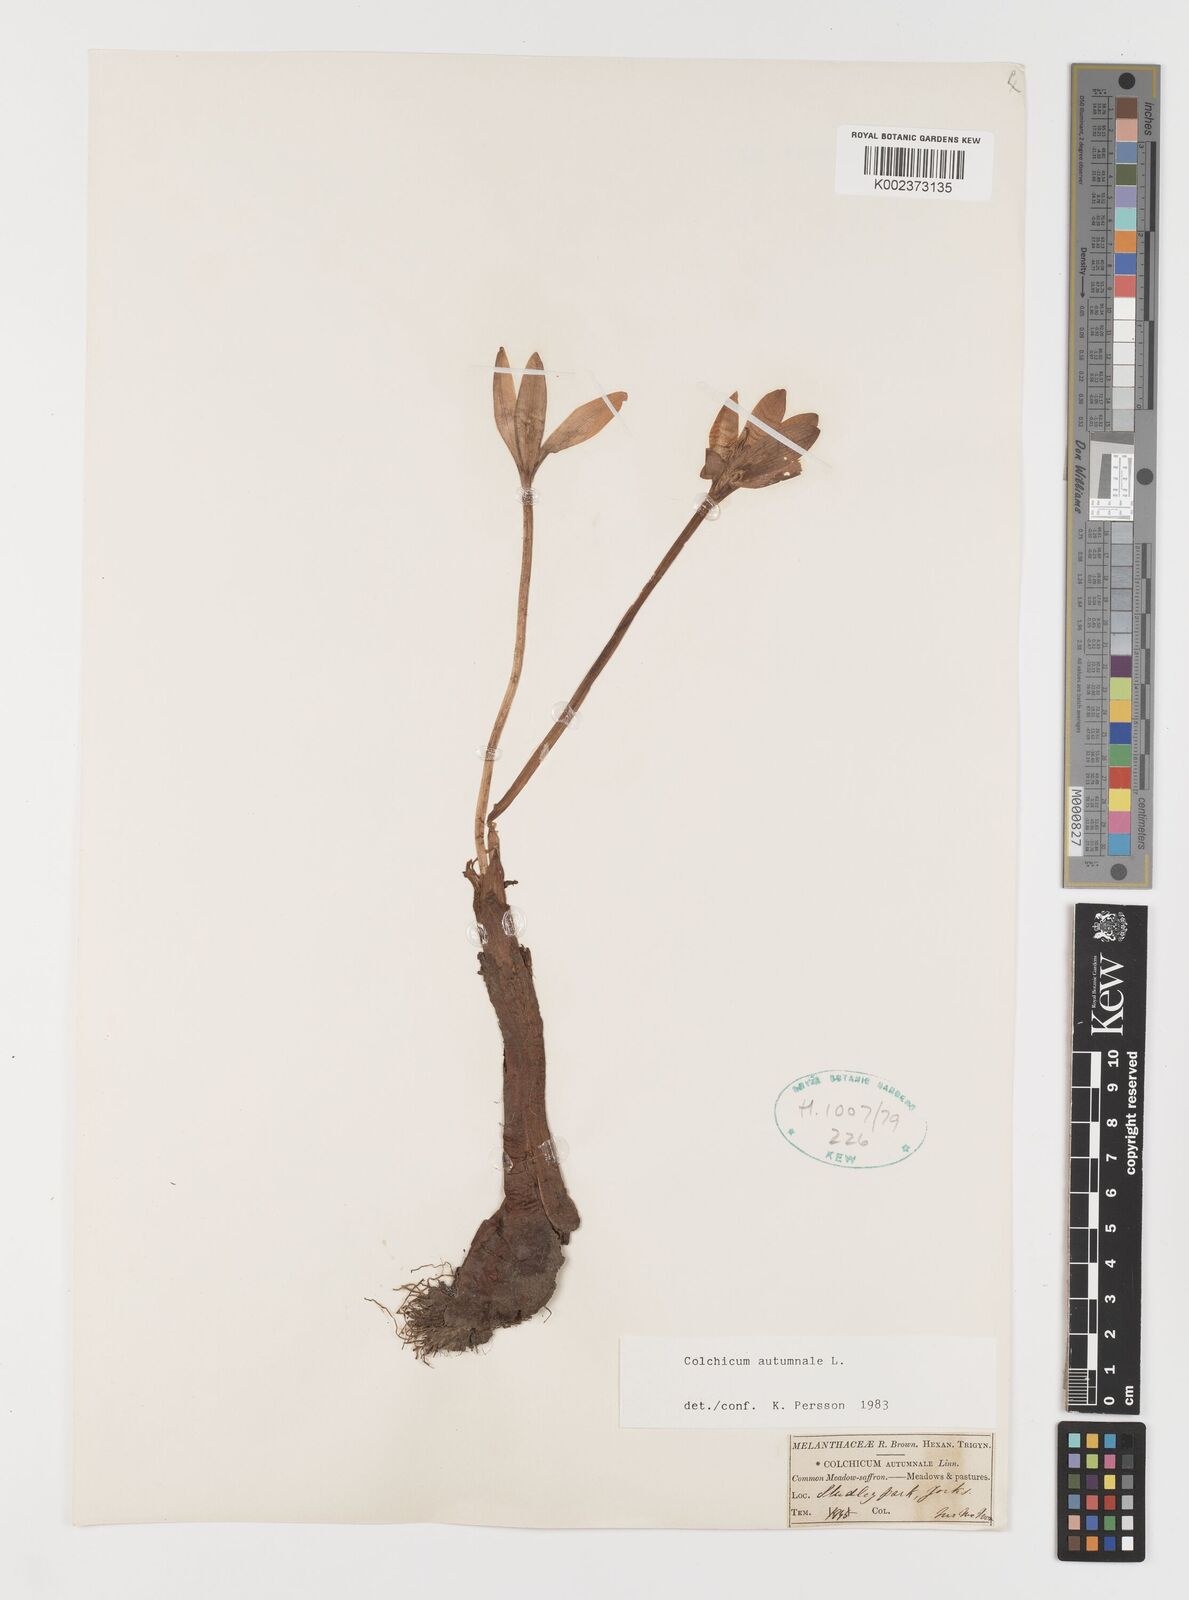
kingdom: Plantae
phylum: Tracheophyta
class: Liliopsida
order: Liliales
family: Colchicaceae
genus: Colchicum
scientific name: Colchicum autumnale
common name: Autumn crocus
